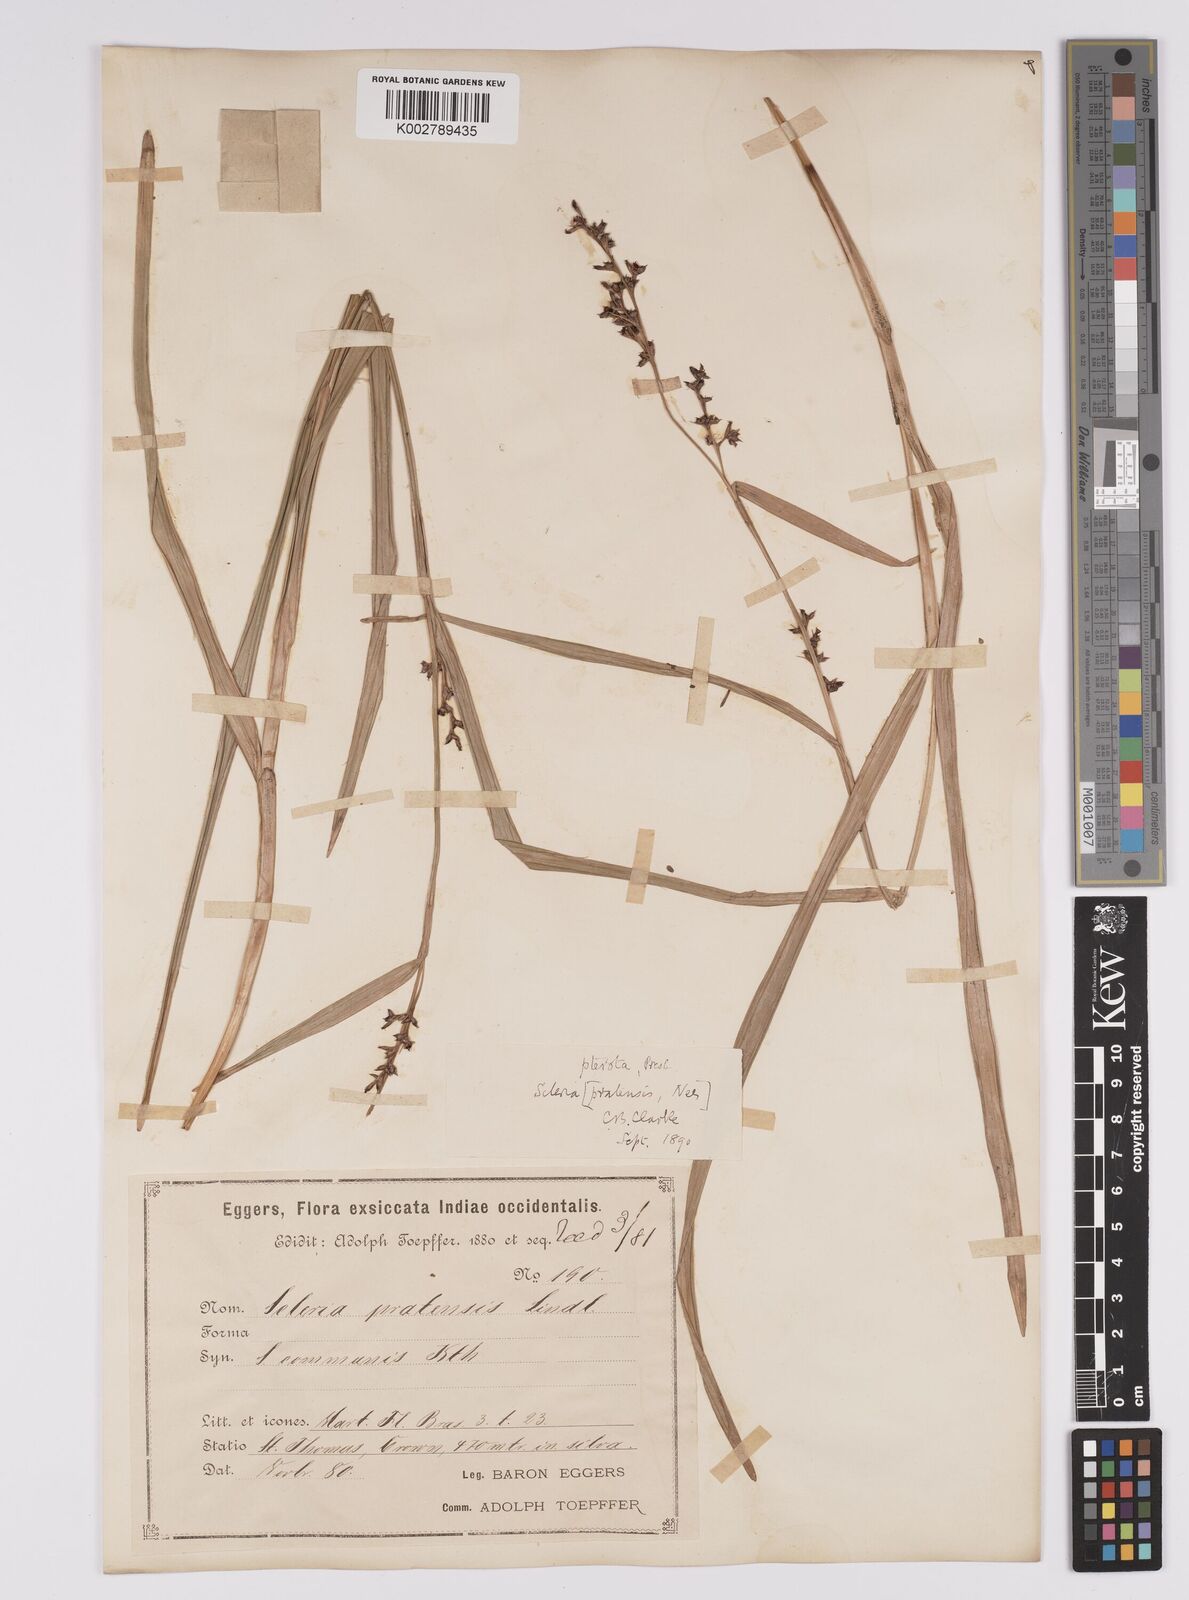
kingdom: Plantae
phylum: Tracheophyta
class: Liliopsida
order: Poales
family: Cyperaceae
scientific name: Cyperaceae
